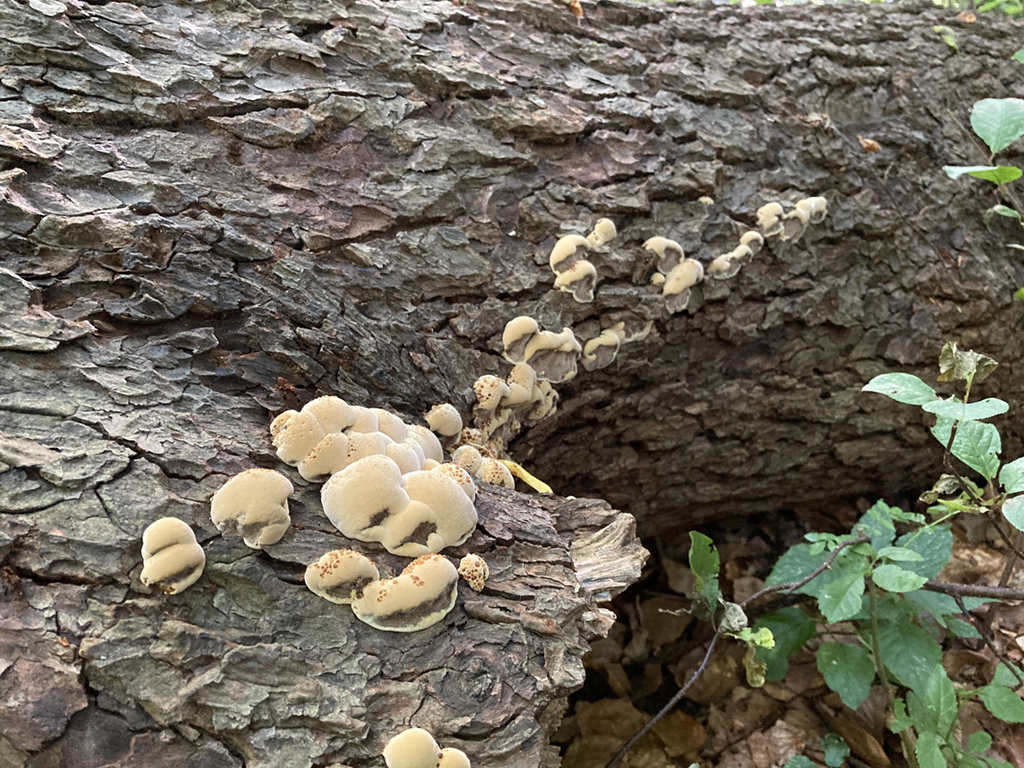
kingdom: Fungi
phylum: Basidiomycota
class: Agaricomycetes
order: Hymenochaetales
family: Hymenochaetaceae
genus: Xanthoporia
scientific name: Xanthoporia radiata
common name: elle-spejlporesvamp
